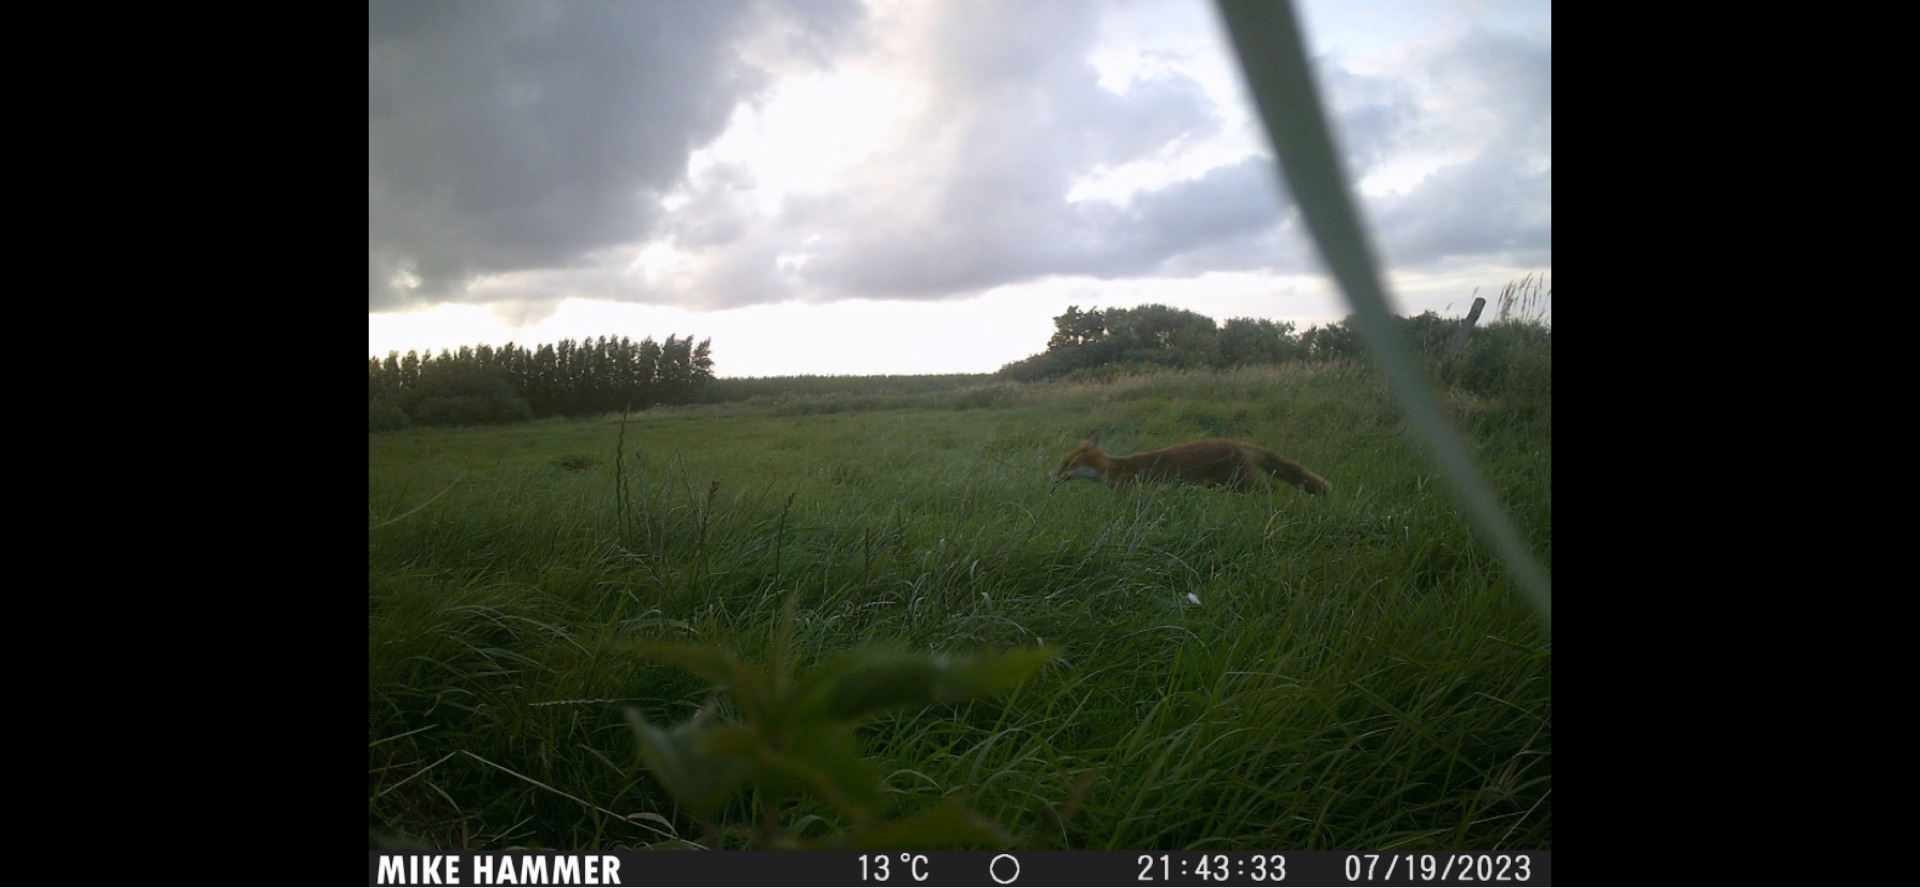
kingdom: Animalia
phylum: Chordata
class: Mammalia
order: Carnivora
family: Canidae
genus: Vulpes
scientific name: Vulpes vulpes
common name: Ræv
